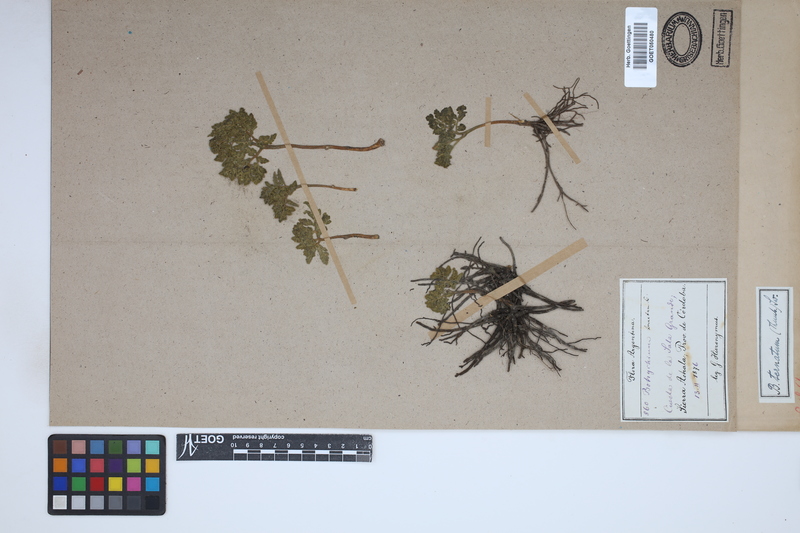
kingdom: Plantae
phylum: Tracheophyta
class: Polypodiopsida
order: Ophioglossales
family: Ophioglossaceae
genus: Sceptridium
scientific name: Sceptridium
